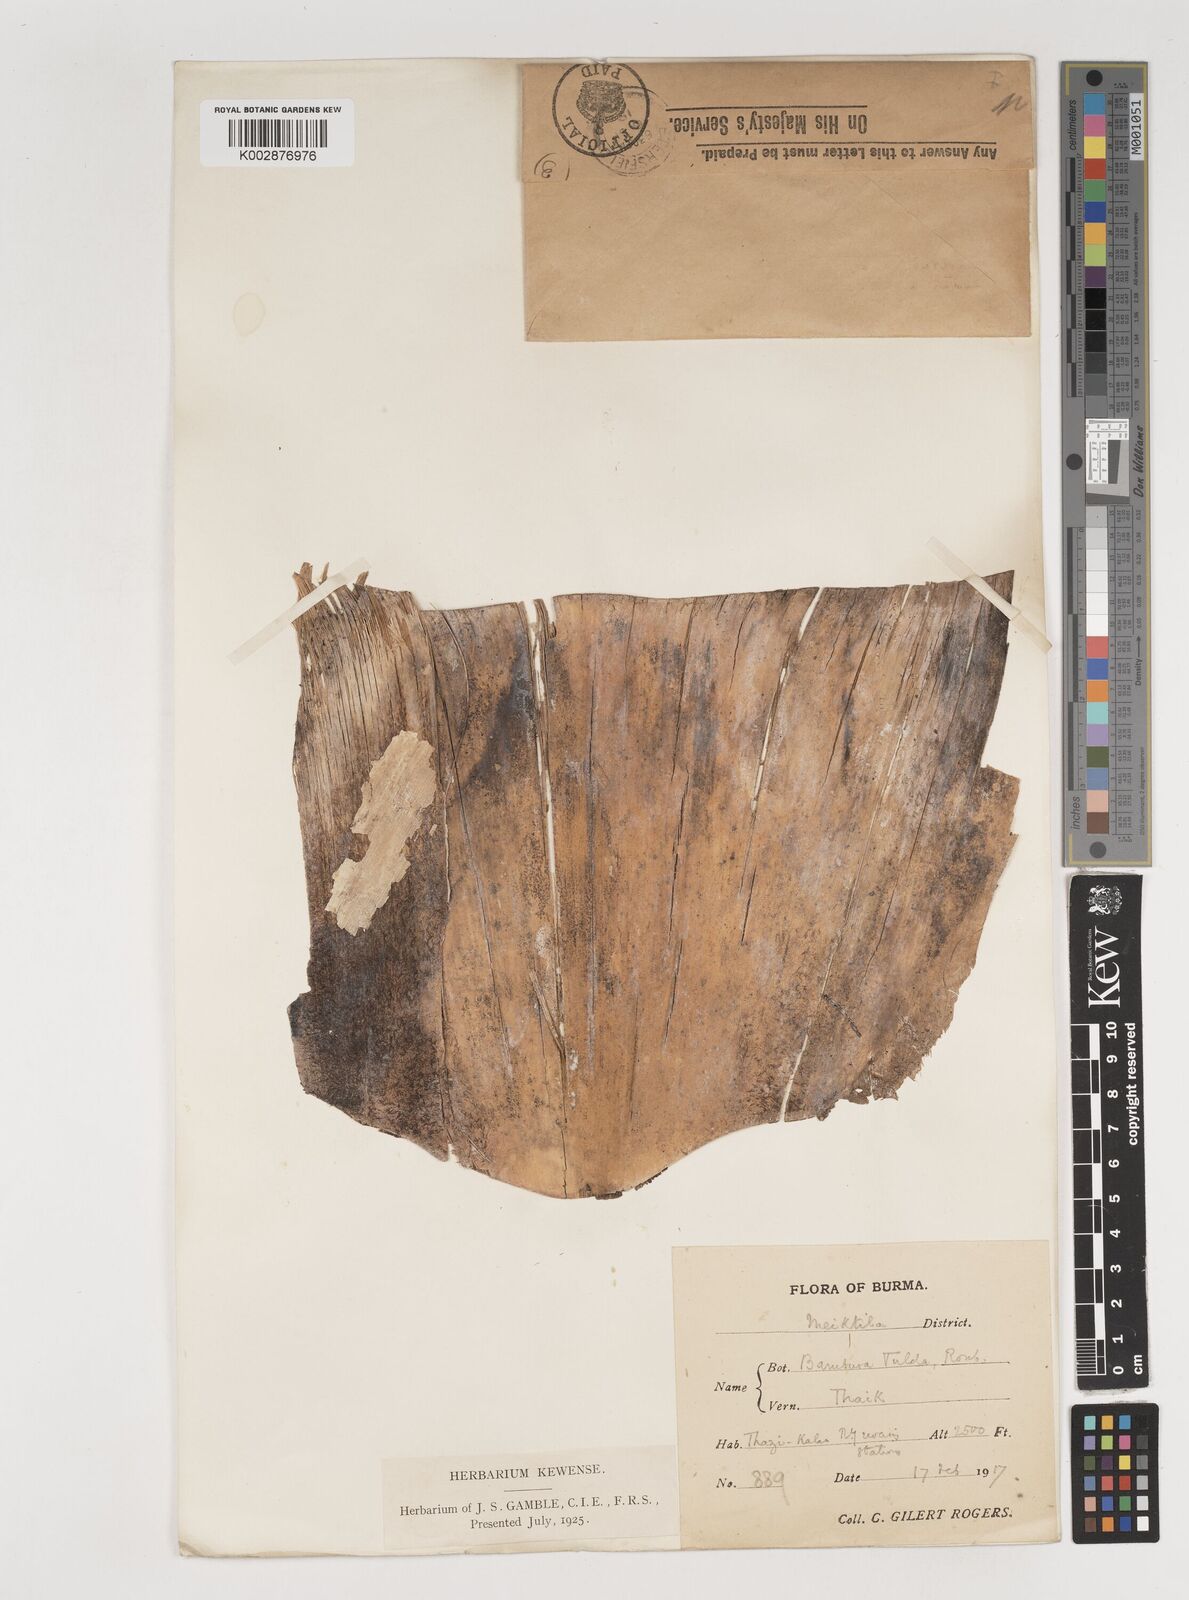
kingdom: Plantae
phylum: Tracheophyta
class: Liliopsida
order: Poales
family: Poaceae
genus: Bambusa
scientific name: Bambusa tulda
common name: Bengal bamboo
